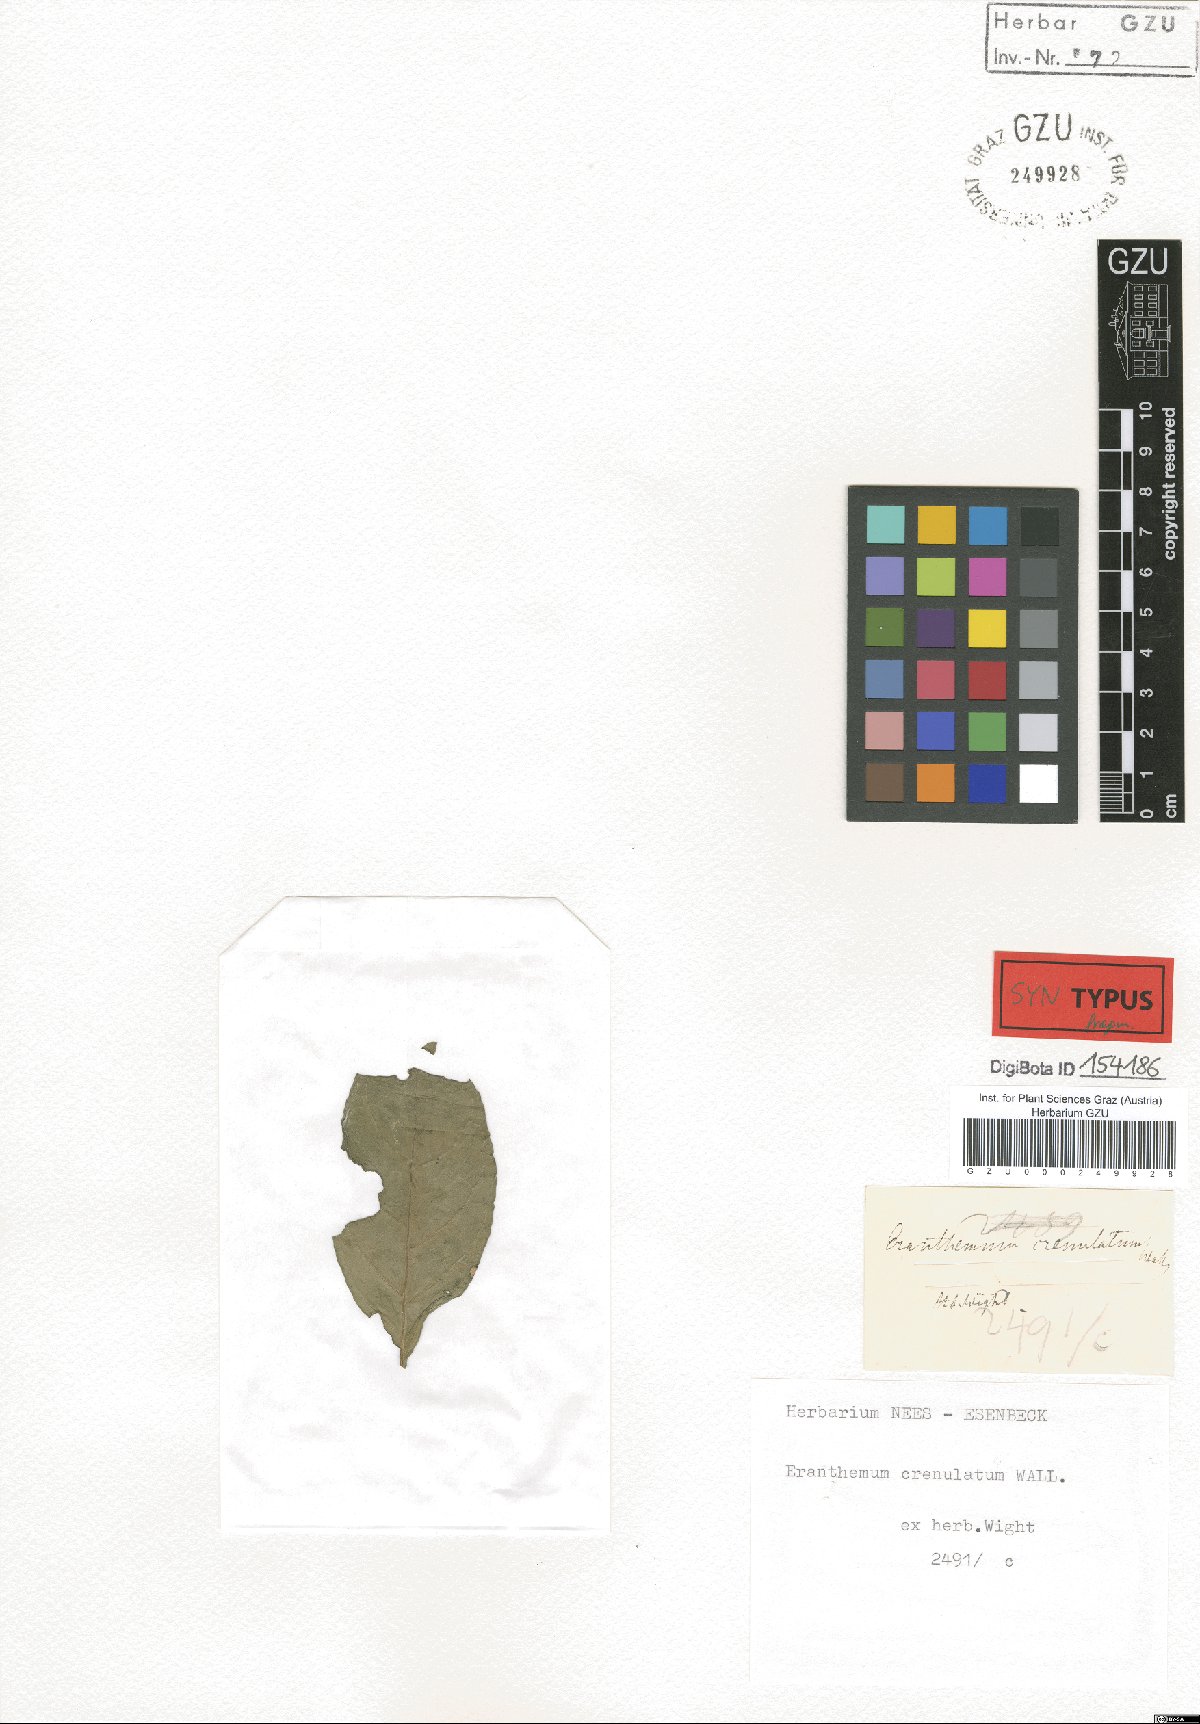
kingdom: Plantae
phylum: Tracheophyta
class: Magnoliopsida
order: Lamiales
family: Acanthaceae
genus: Pseuderanthemum
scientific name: Pseuderanthemum crenulatum
